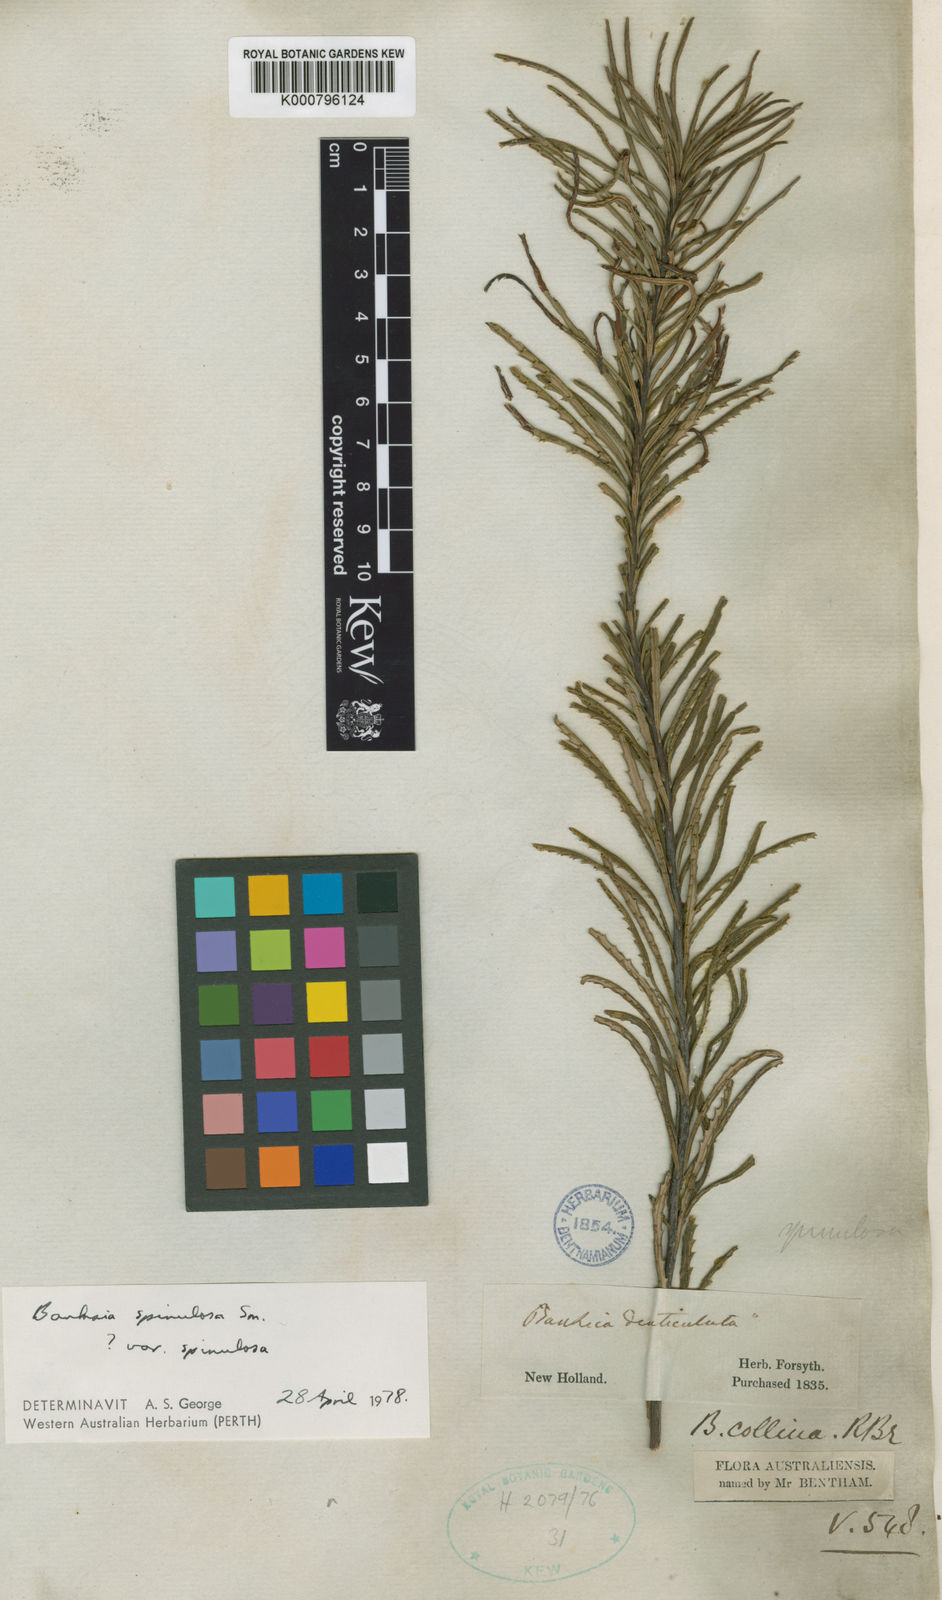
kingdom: Plantae
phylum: Tracheophyta
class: Magnoliopsida
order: Proteales
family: Proteaceae
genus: Banksia
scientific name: Banksia spinulosa
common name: Hairpin banksia
